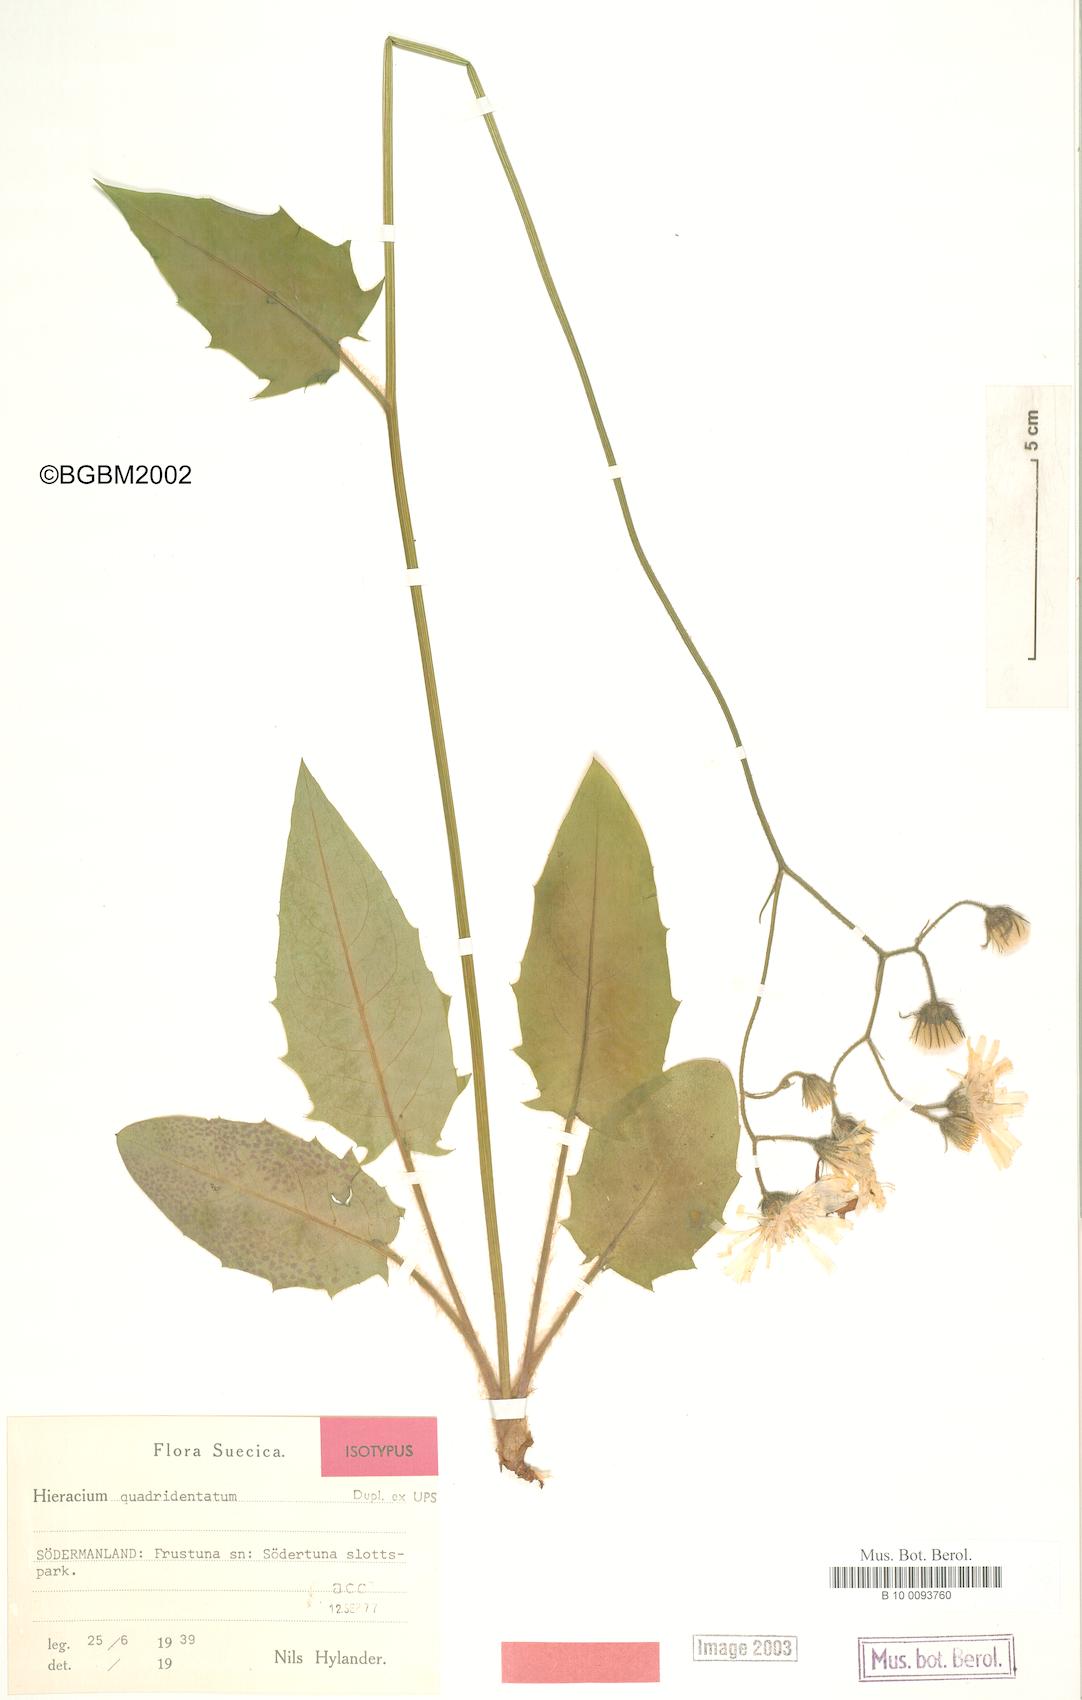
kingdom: Plantae
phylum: Tracheophyta
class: Magnoliopsida
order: Asterales
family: Asteraceae
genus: Hieracium
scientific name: Hieracium quadridentatum
